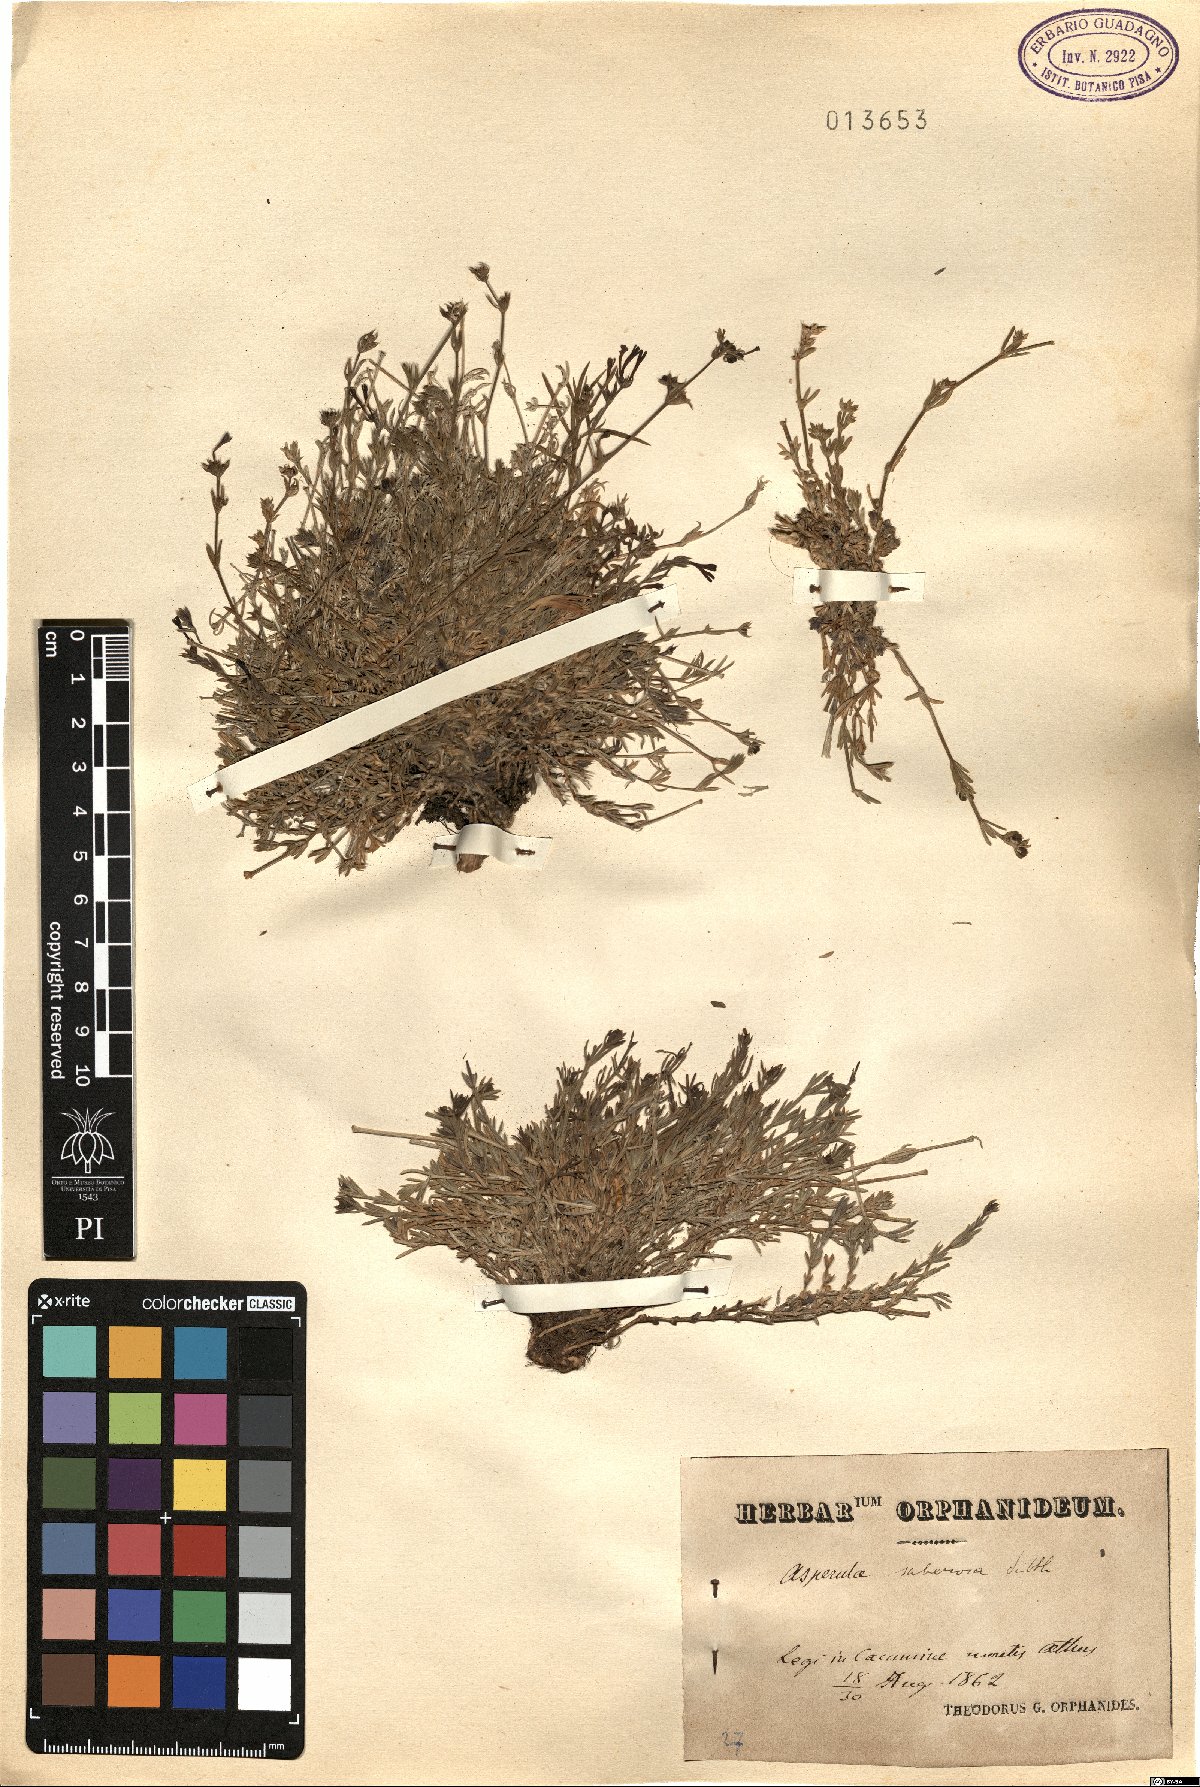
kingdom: Plantae
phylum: Tracheophyta
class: Magnoliopsida
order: Gentianales
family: Rubiaceae
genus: Cynanchica
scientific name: Cynanchica suberosa
